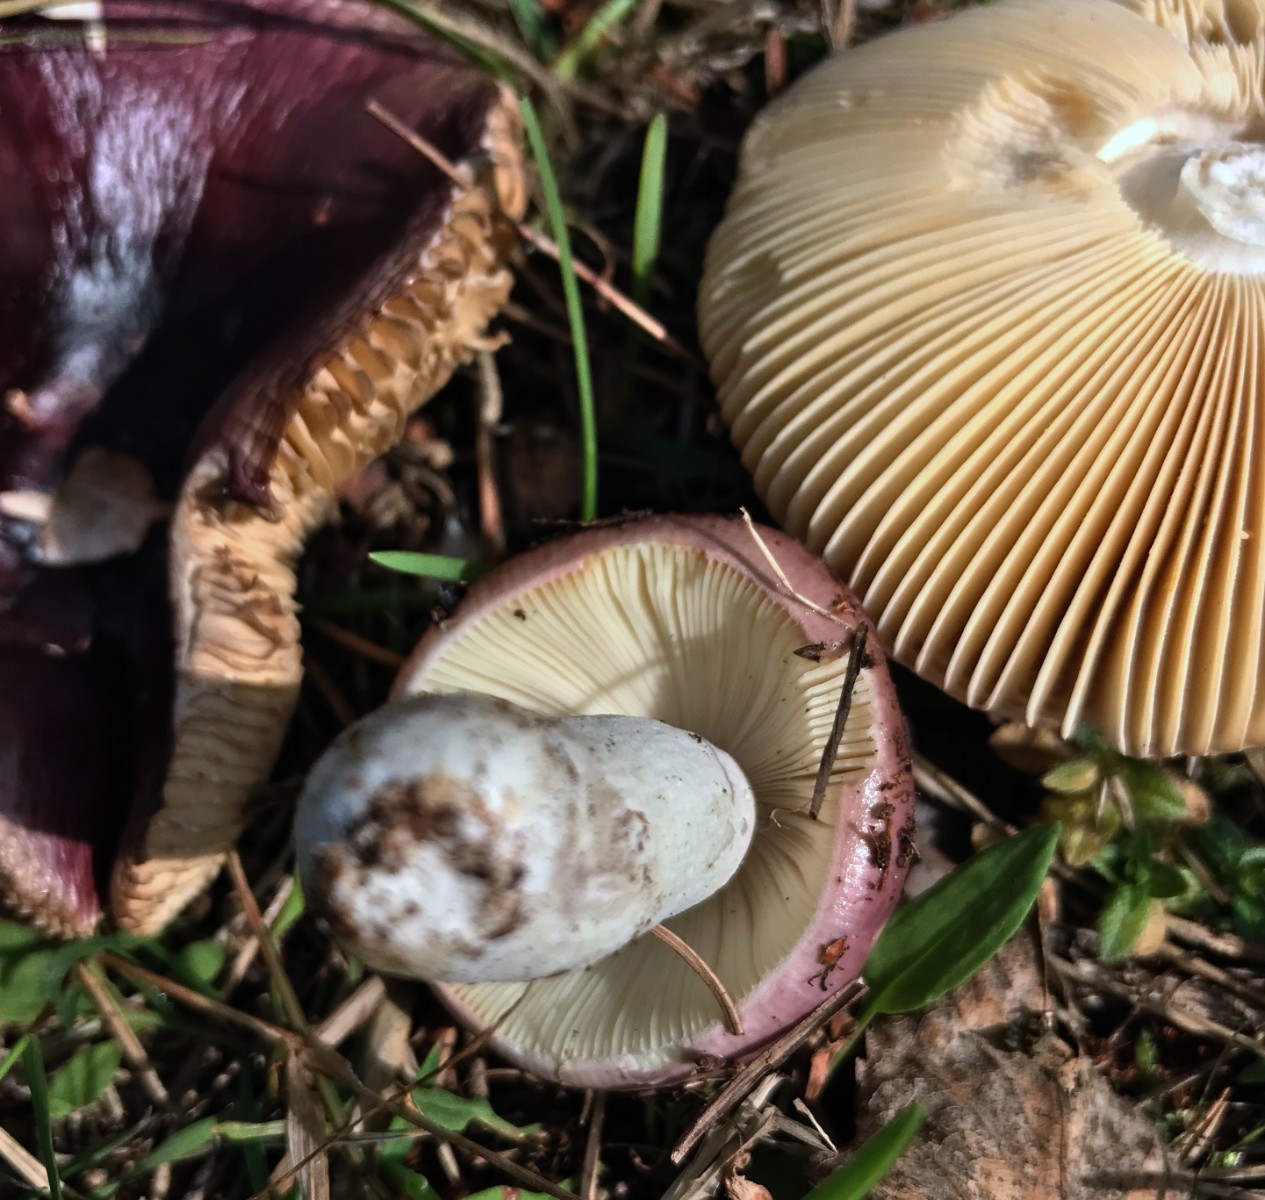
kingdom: Fungi
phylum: Basidiomycota
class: Agaricomycetes
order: Russulales
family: Russulaceae
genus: Russula
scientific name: Russula cessans
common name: fyrre-skørhat
